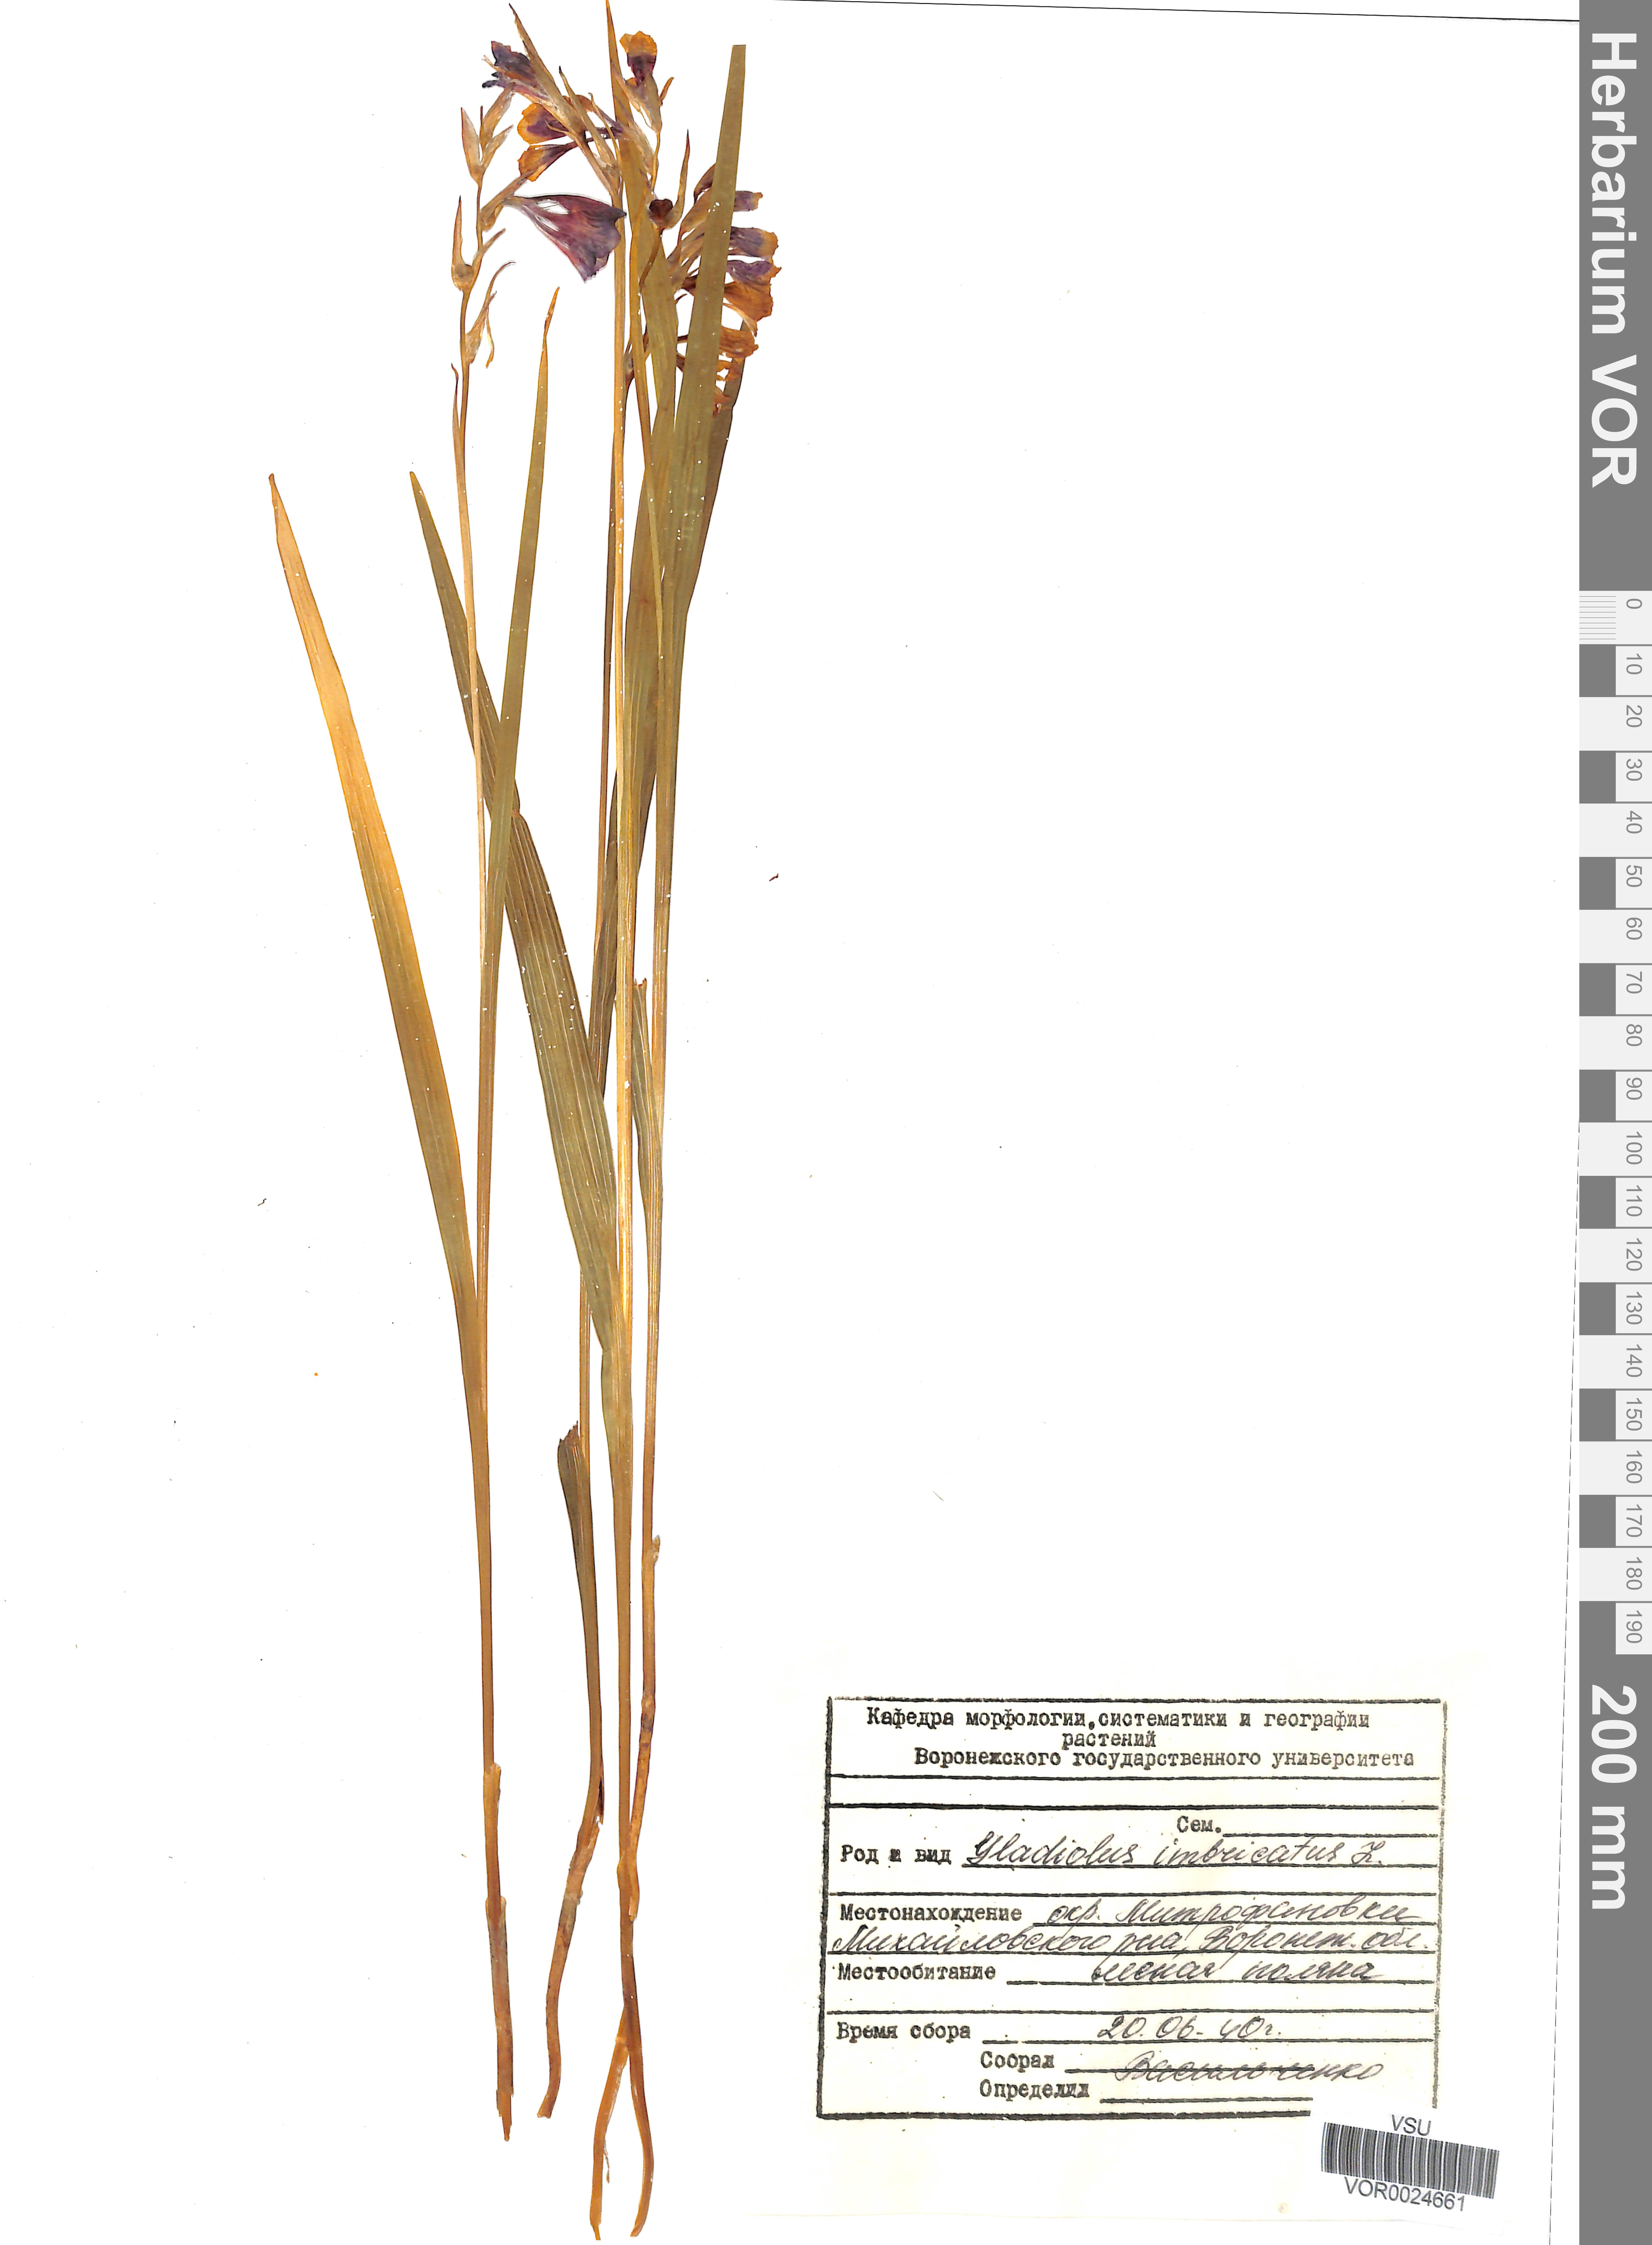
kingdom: Plantae
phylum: Tracheophyta
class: Liliopsida
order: Asparagales
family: Iridaceae
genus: Gladiolus
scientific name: Gladiolus tenuis
